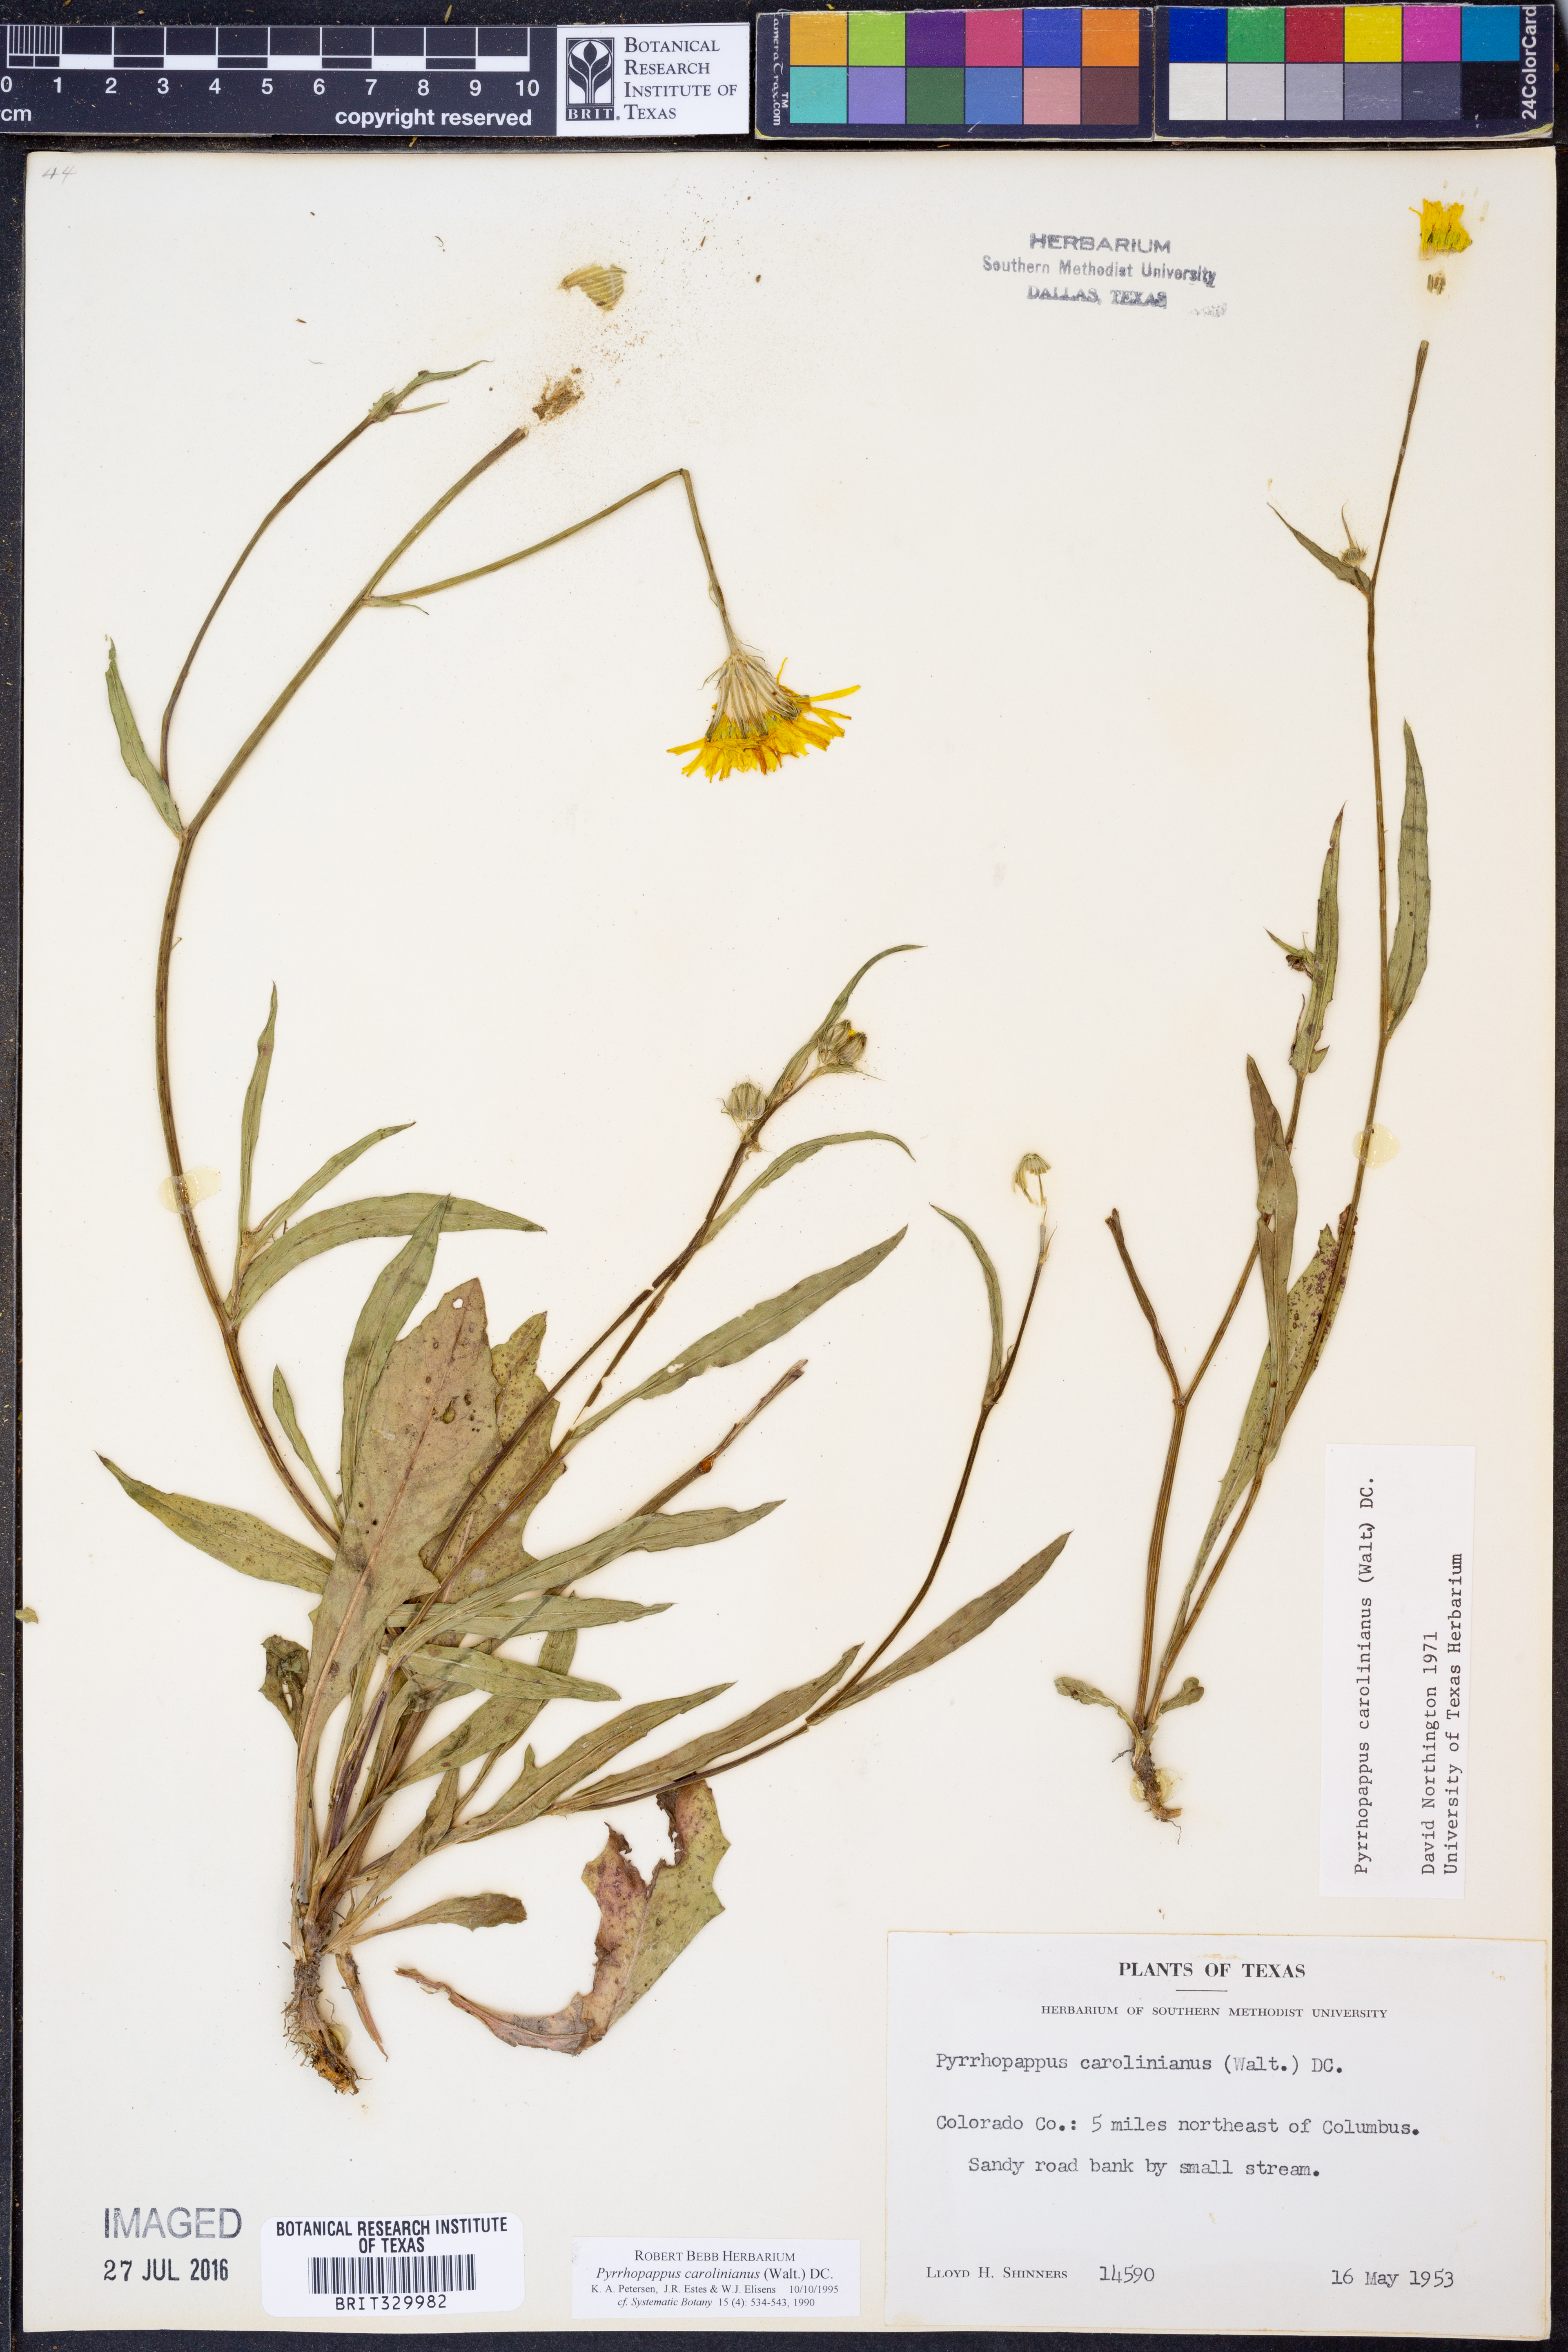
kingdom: Plantae
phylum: Tracheophyta
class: Magnoliopsida
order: Asterales
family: Asteraceae
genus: Pyrrhopappus
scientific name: Pyrrhopappus carolinianus
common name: Carolina desert-chicory
